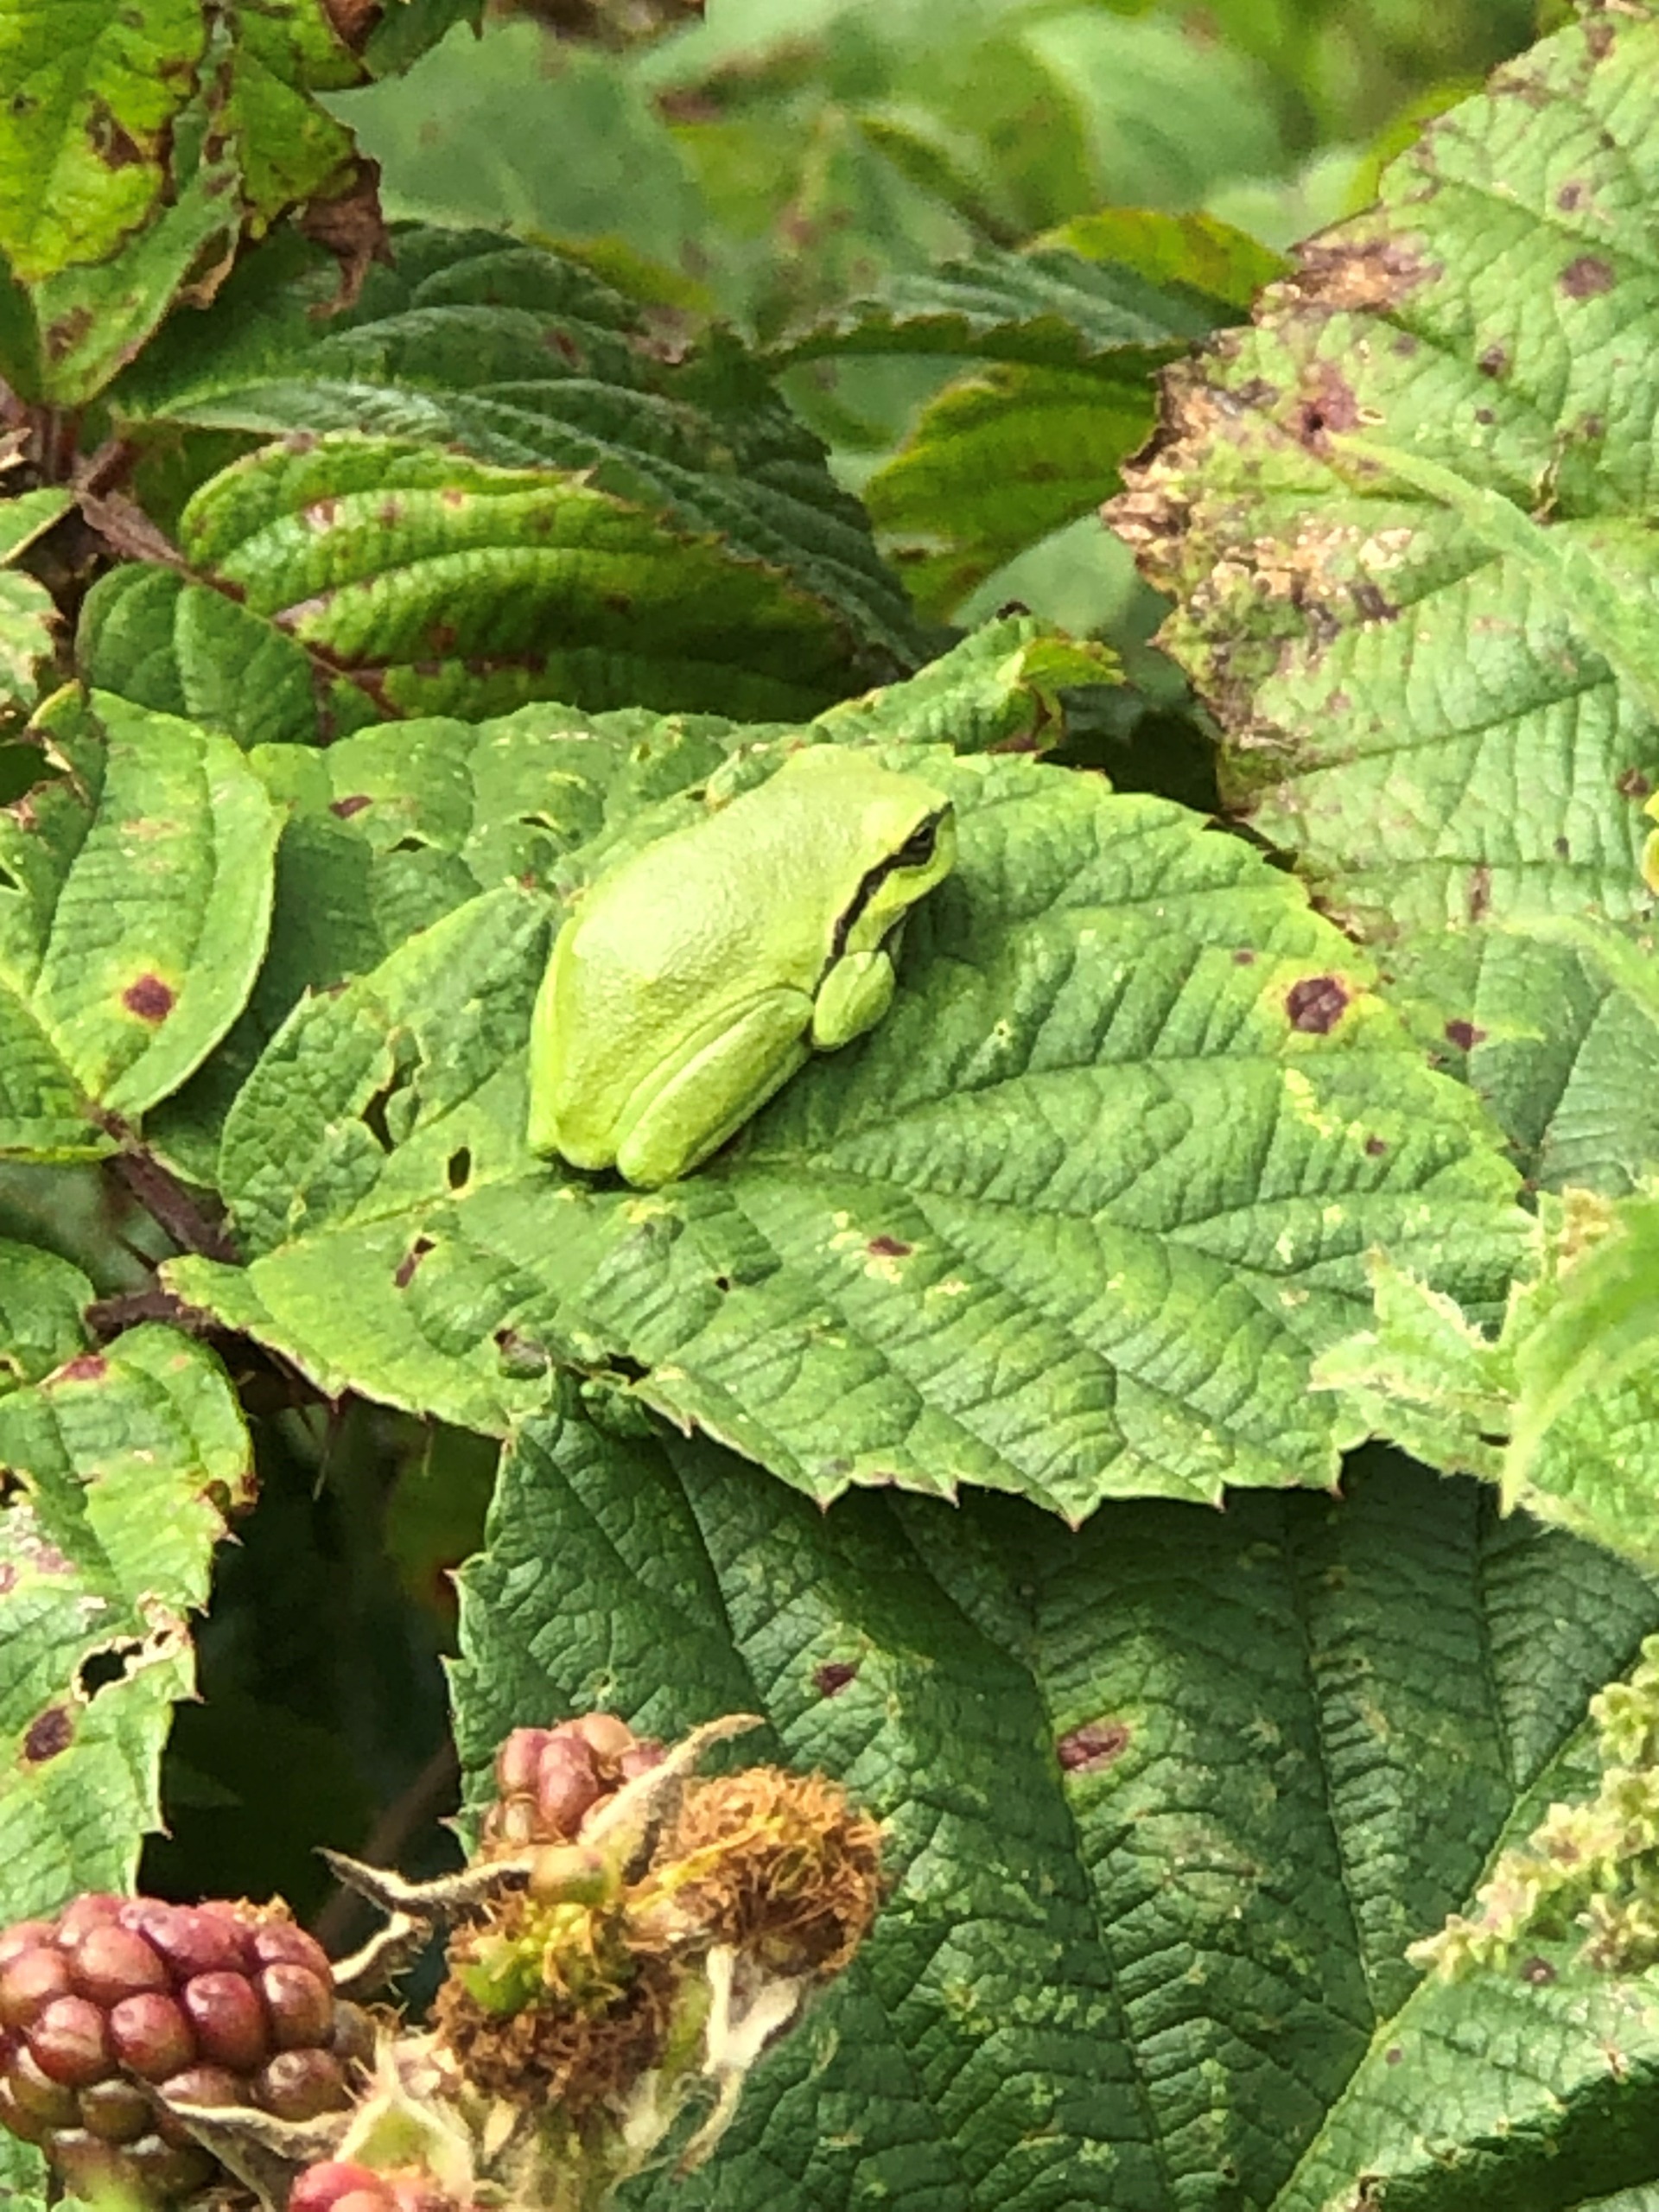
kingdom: Animalia
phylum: Chordata
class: Amphibia
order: Anura
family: Hylidae
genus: Hyla
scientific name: Hyla arborea
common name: Løvfrø
